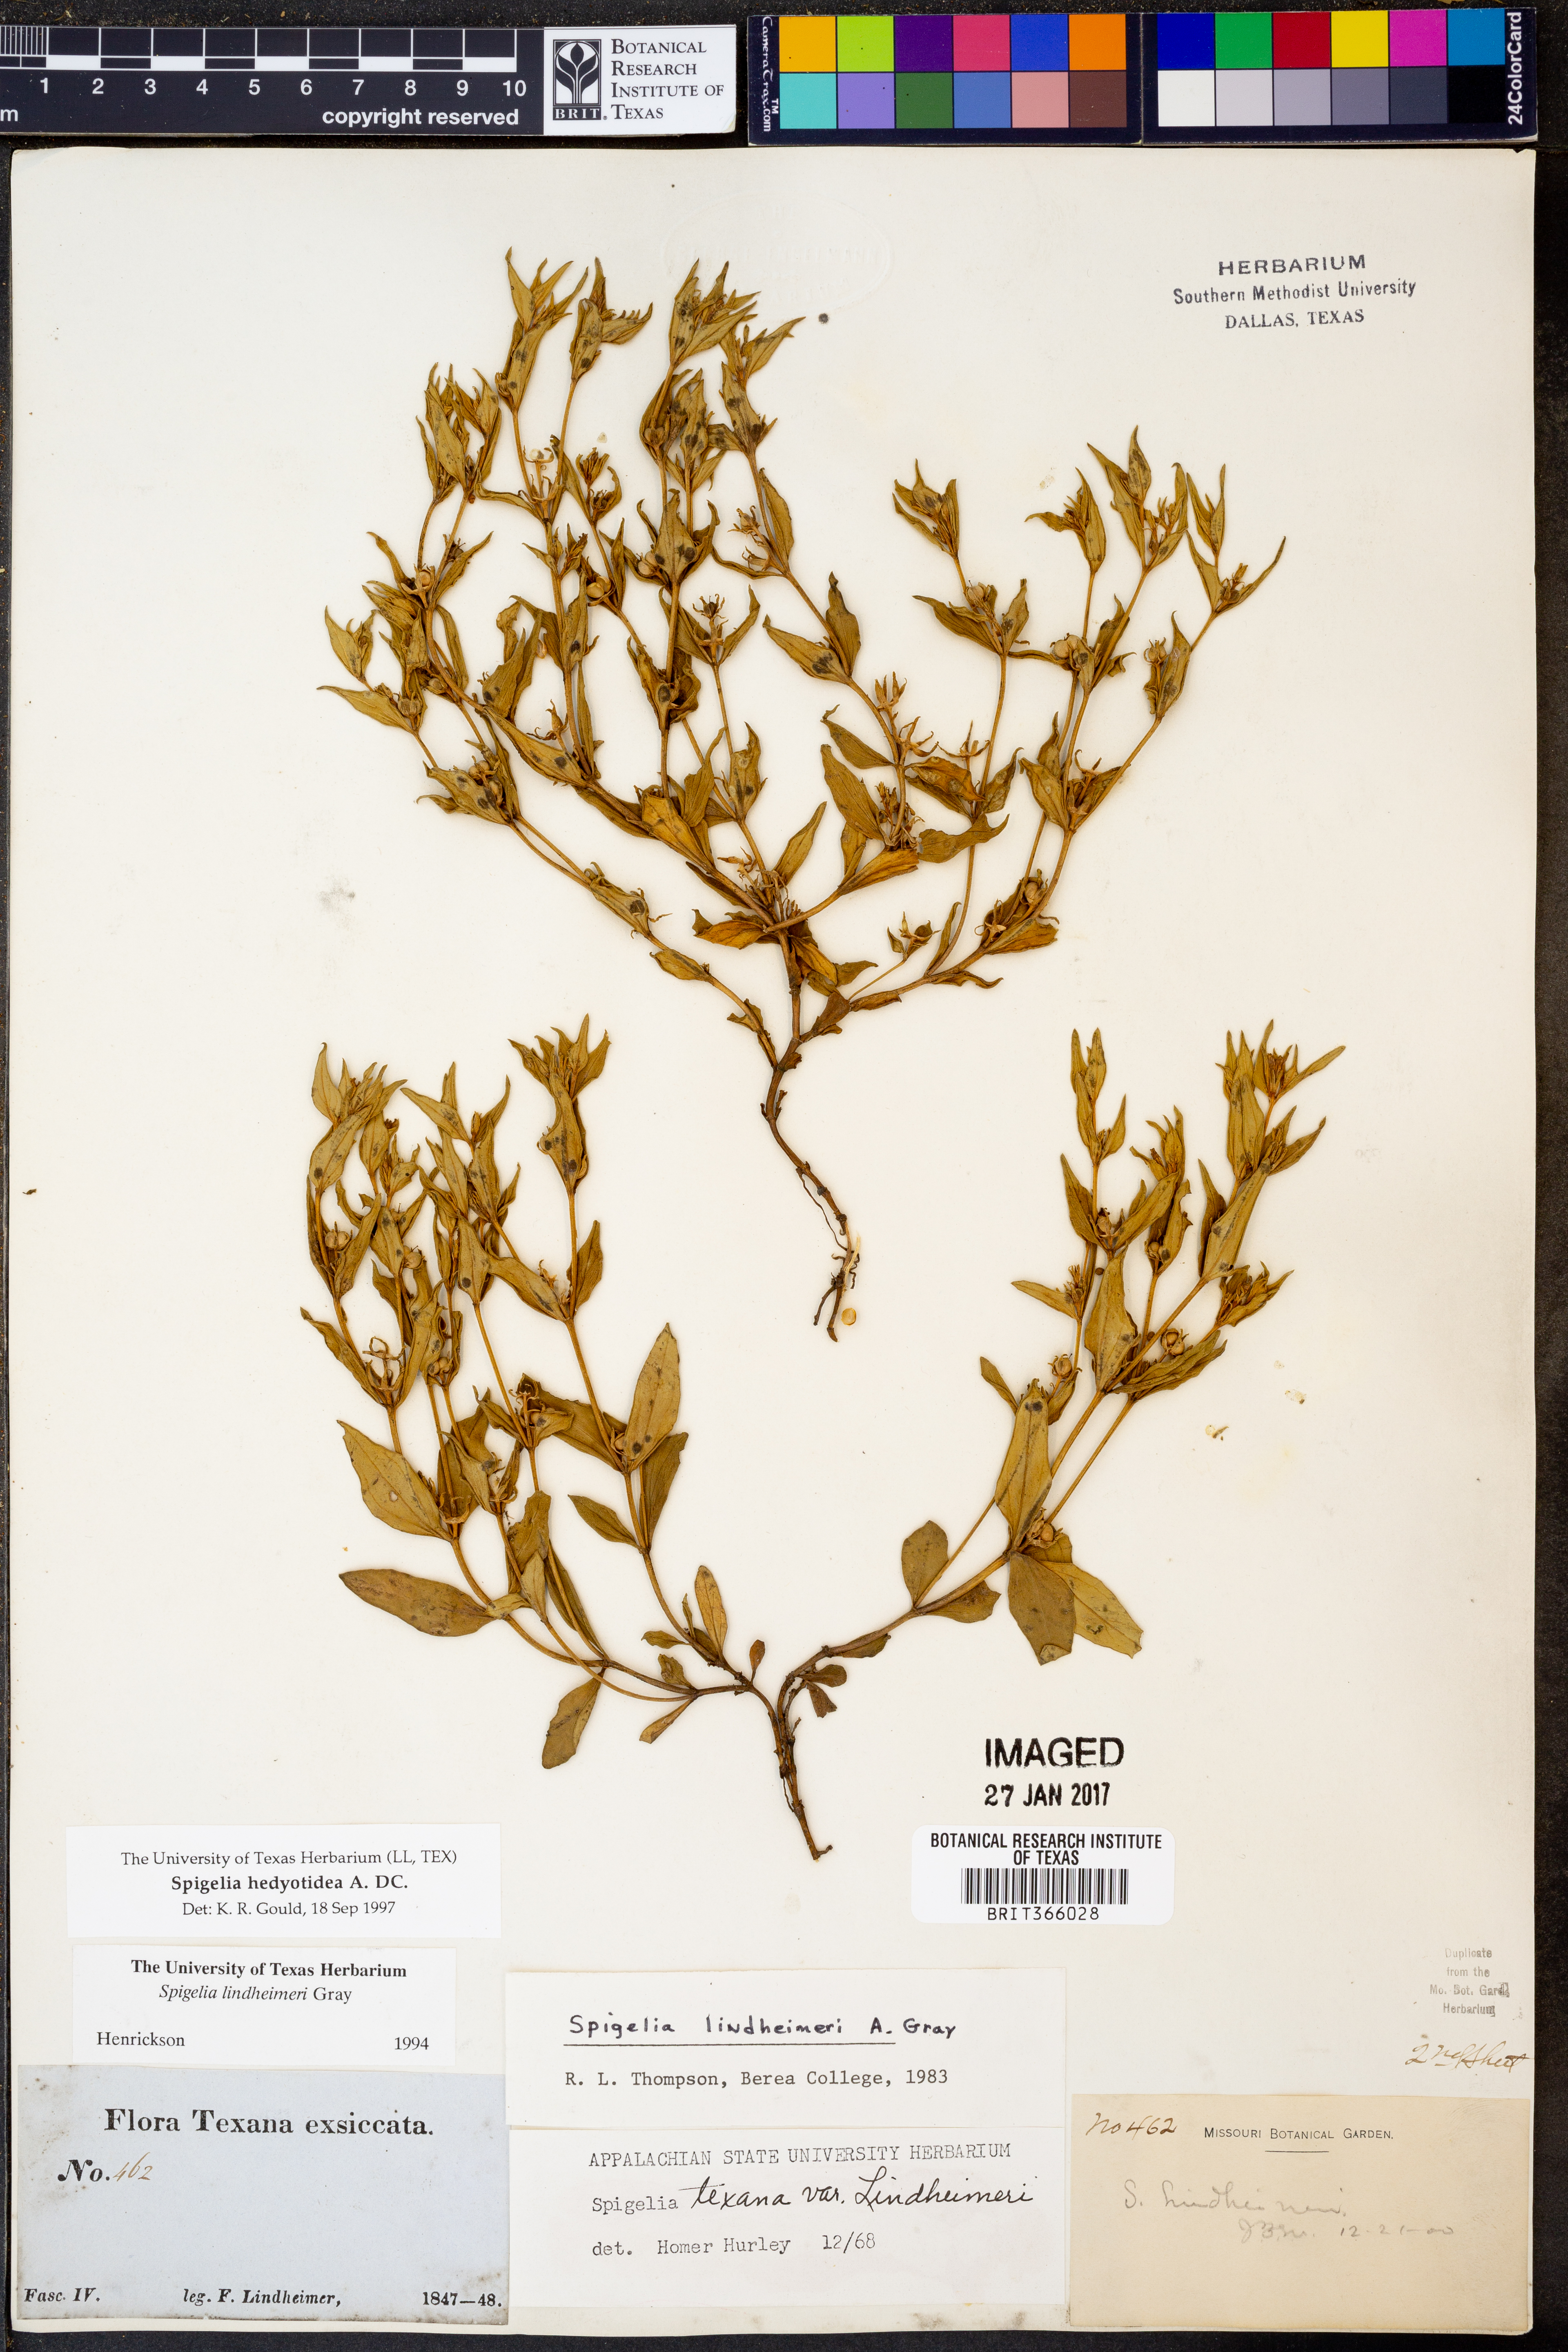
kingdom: Plantae
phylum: Tracheophyta
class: Magnoliopsida
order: Gentianales
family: Loganiaceae
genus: Spigelia
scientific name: Spigelia hedyotidea
